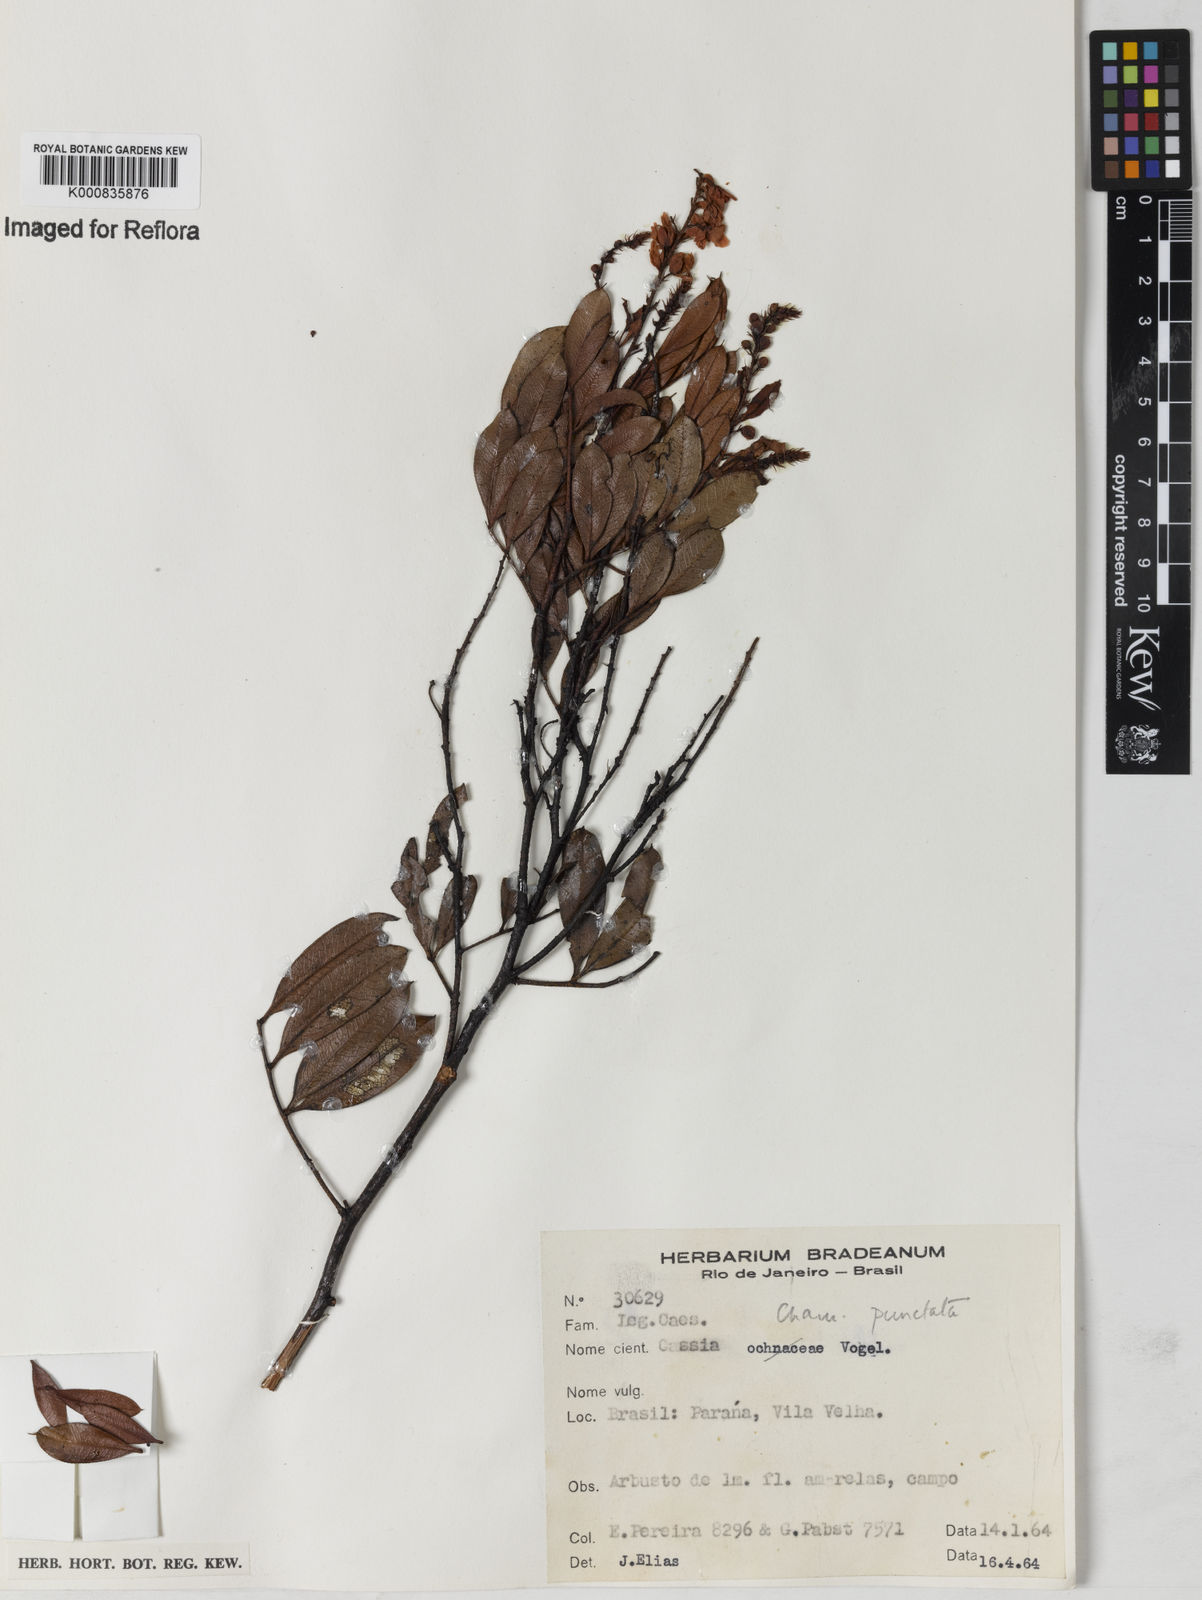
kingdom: Plantae
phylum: Tracheophyta
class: Magnoliopsida
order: Fabales
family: Fabaceae
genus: Chamaecrista
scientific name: Chamaecrista punctata
